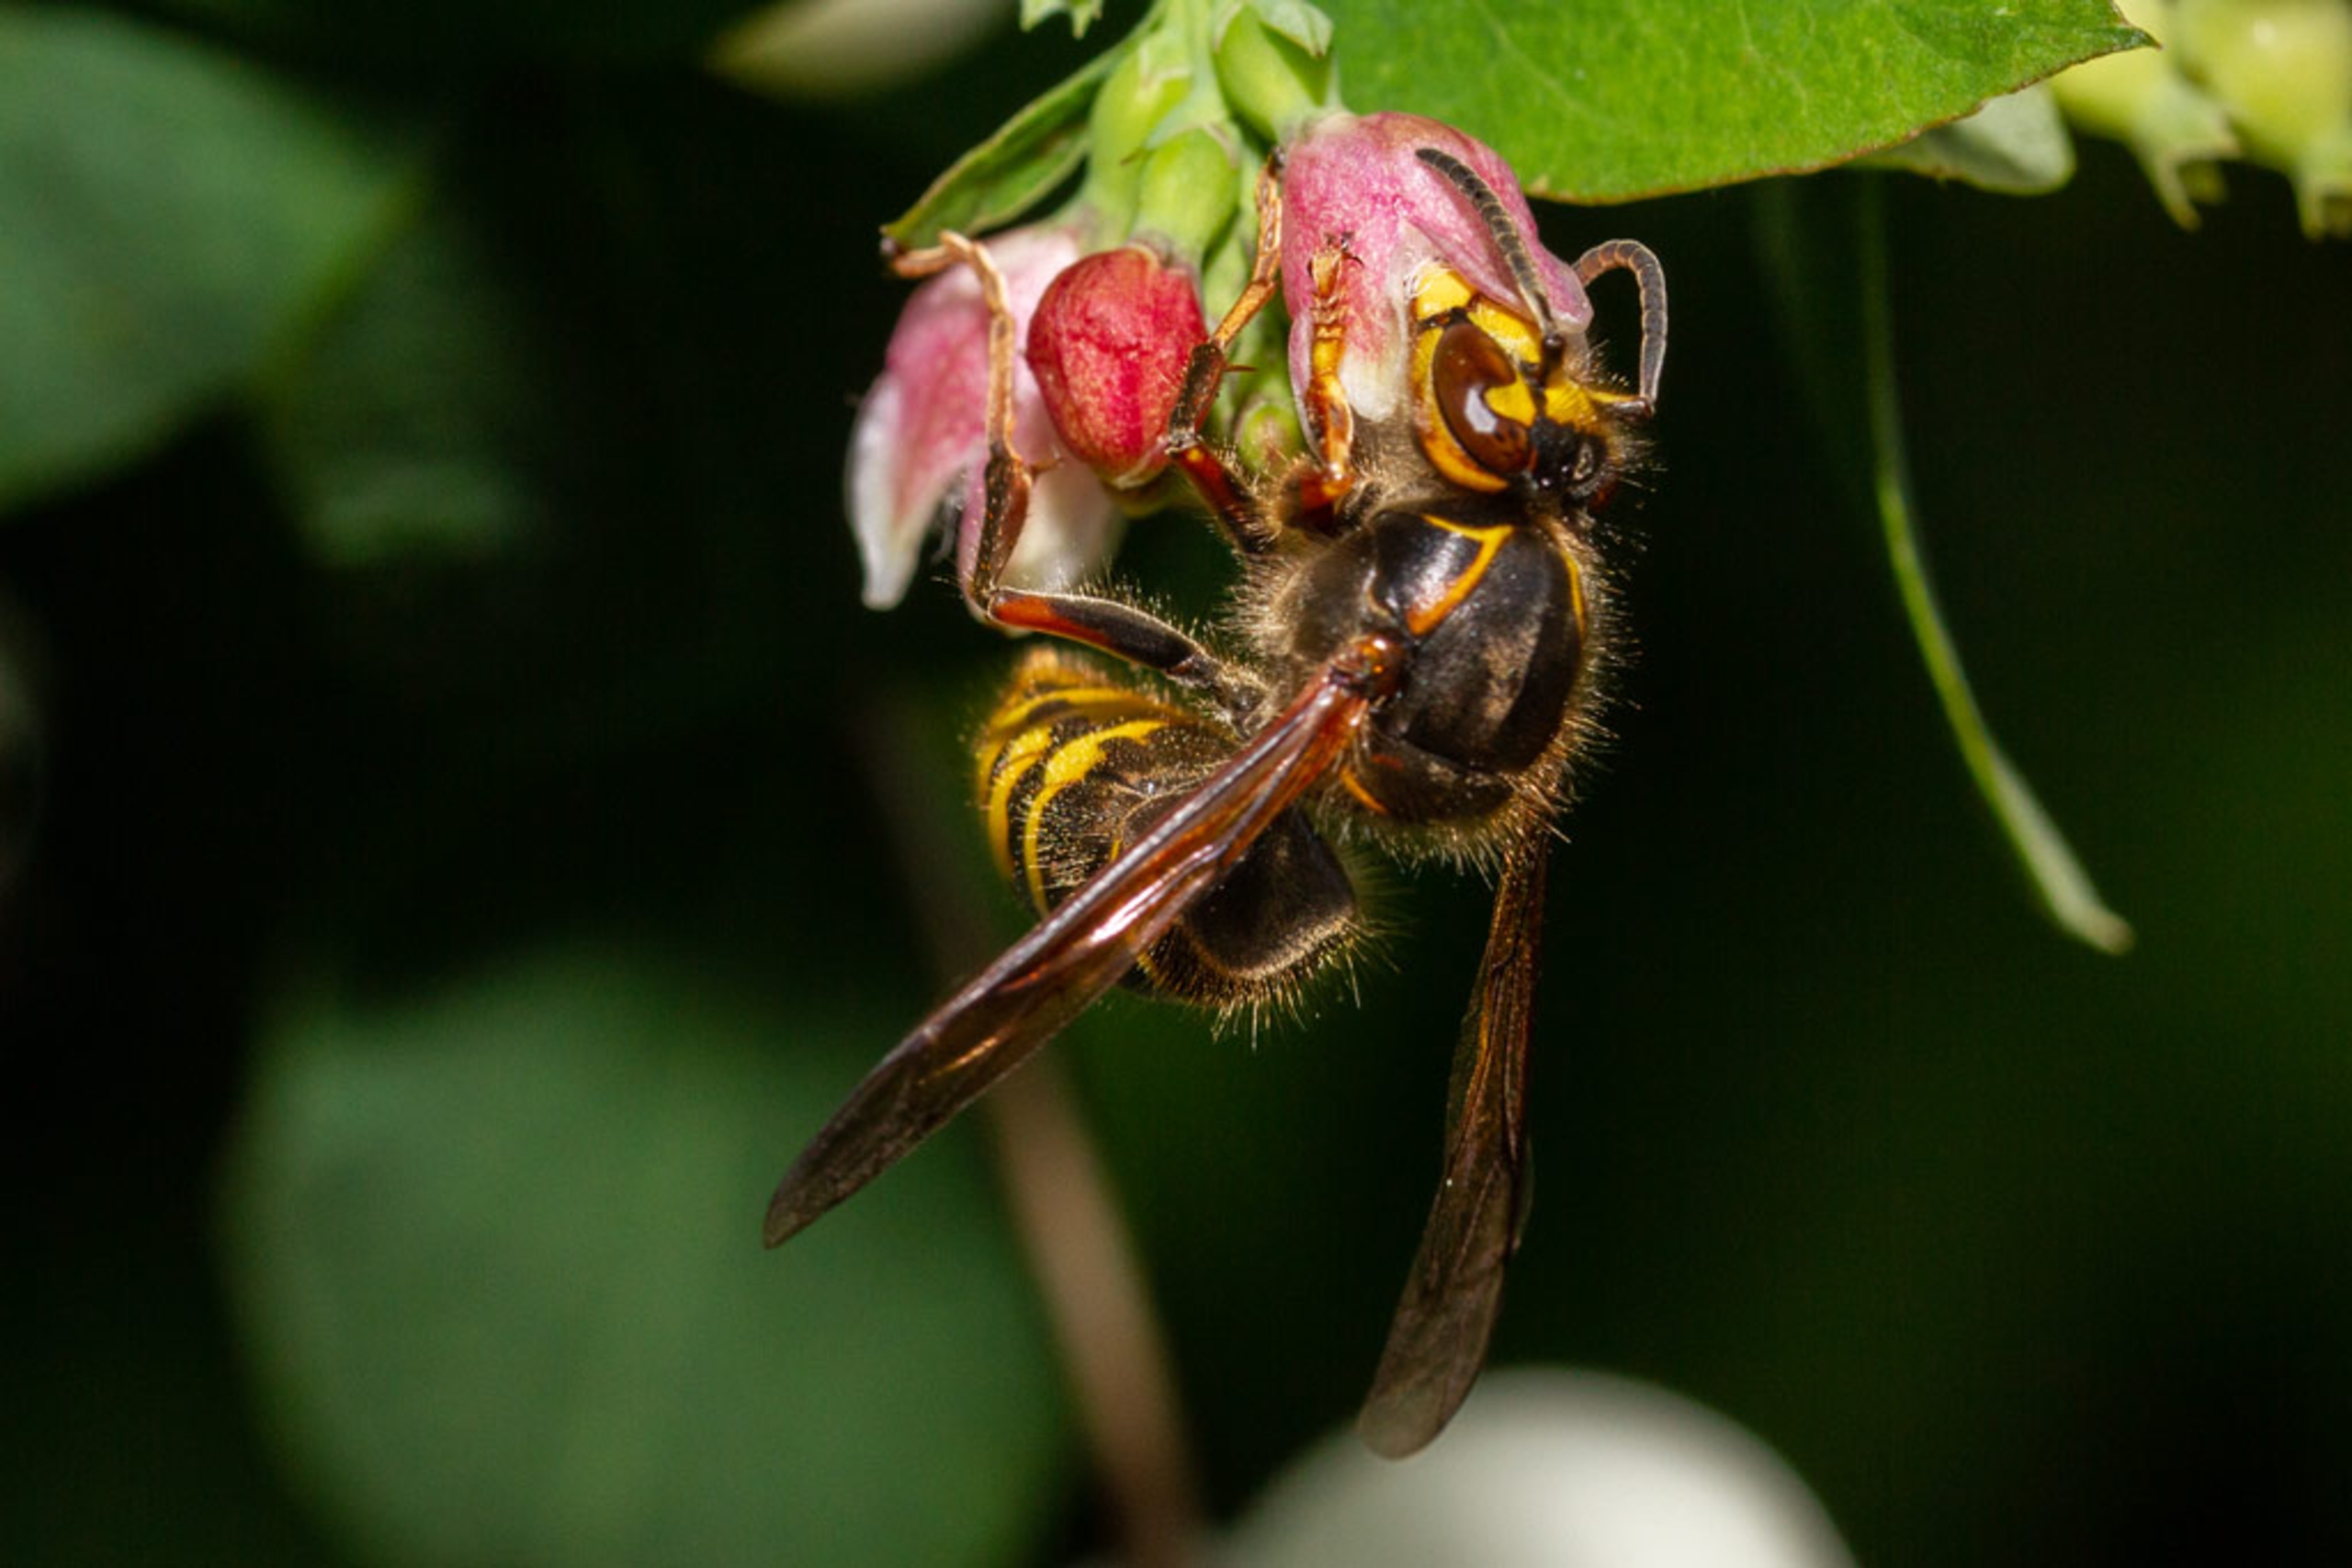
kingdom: Animalia
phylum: Arthropoda
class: Insecta
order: Hymenoptera
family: Vespidae
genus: Dolichovespula
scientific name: Dolichovespula media
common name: Mellemstor gedehams
